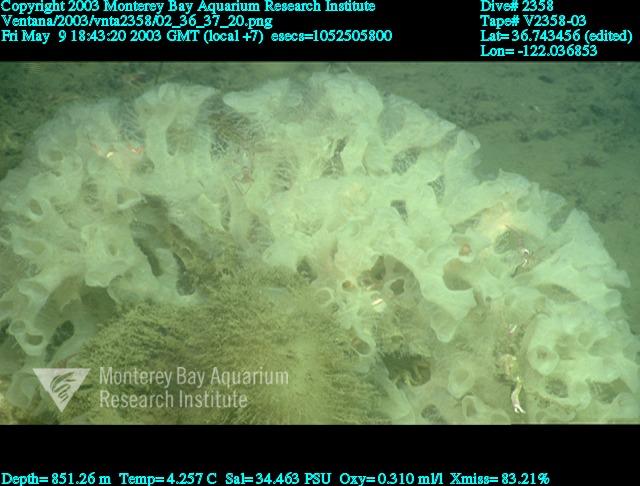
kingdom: Animalia
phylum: Porifera
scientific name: Porifera
